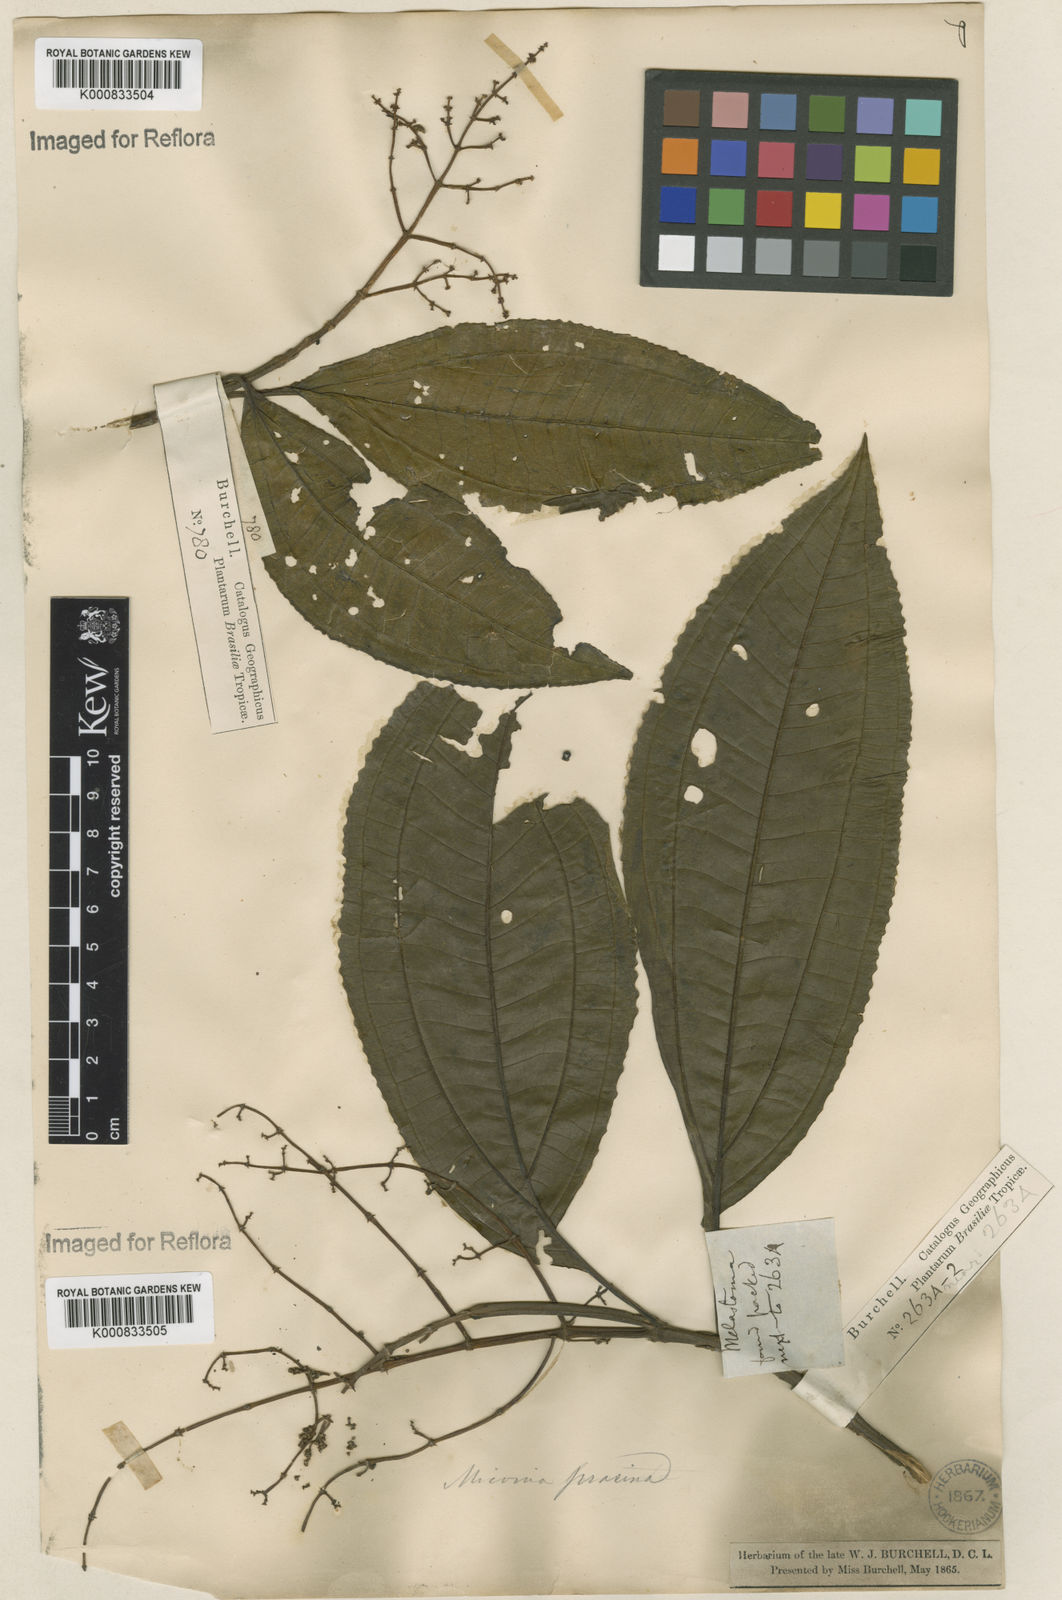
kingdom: Plantae
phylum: Tracheophyta
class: Magnoliopsida
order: Myrtales
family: Melastomataceae
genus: Miconia
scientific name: Miconia prasina
